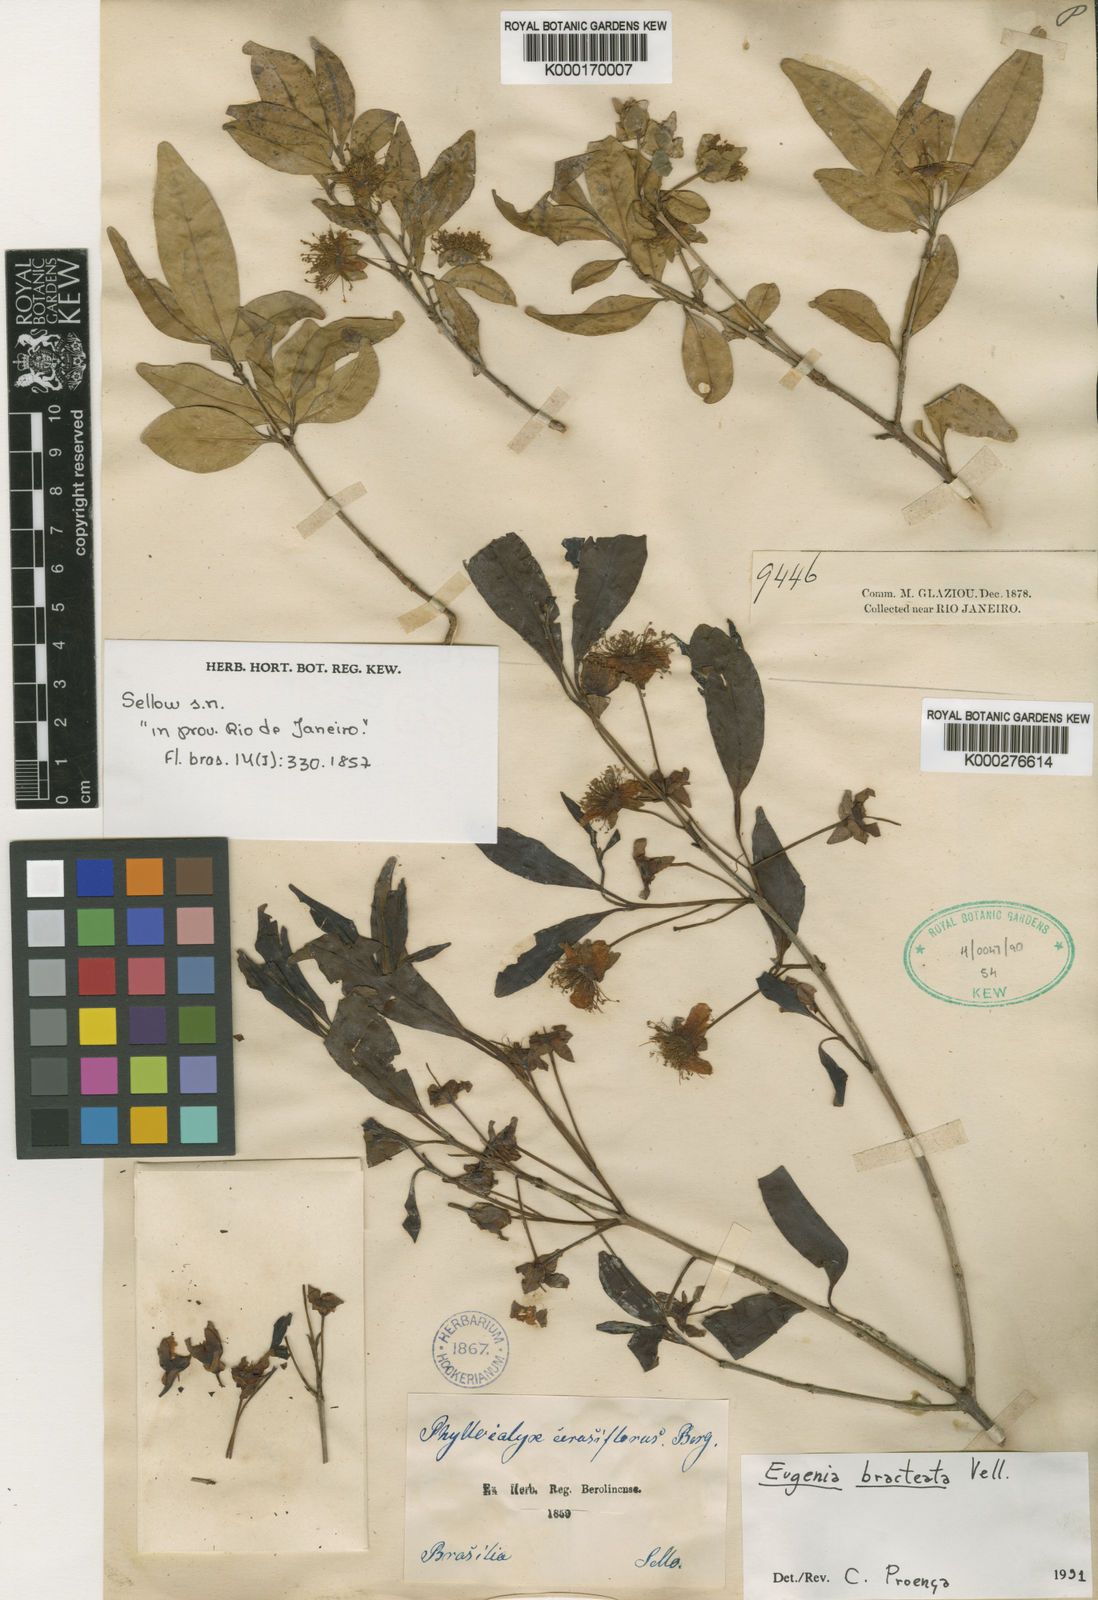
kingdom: Plantae
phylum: Tracheophyta
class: Magnoliopsida
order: Myrtales
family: Myrtaceae
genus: Eugenia
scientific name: Eugenia involucrata
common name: Cherry-of-the-rio grande
